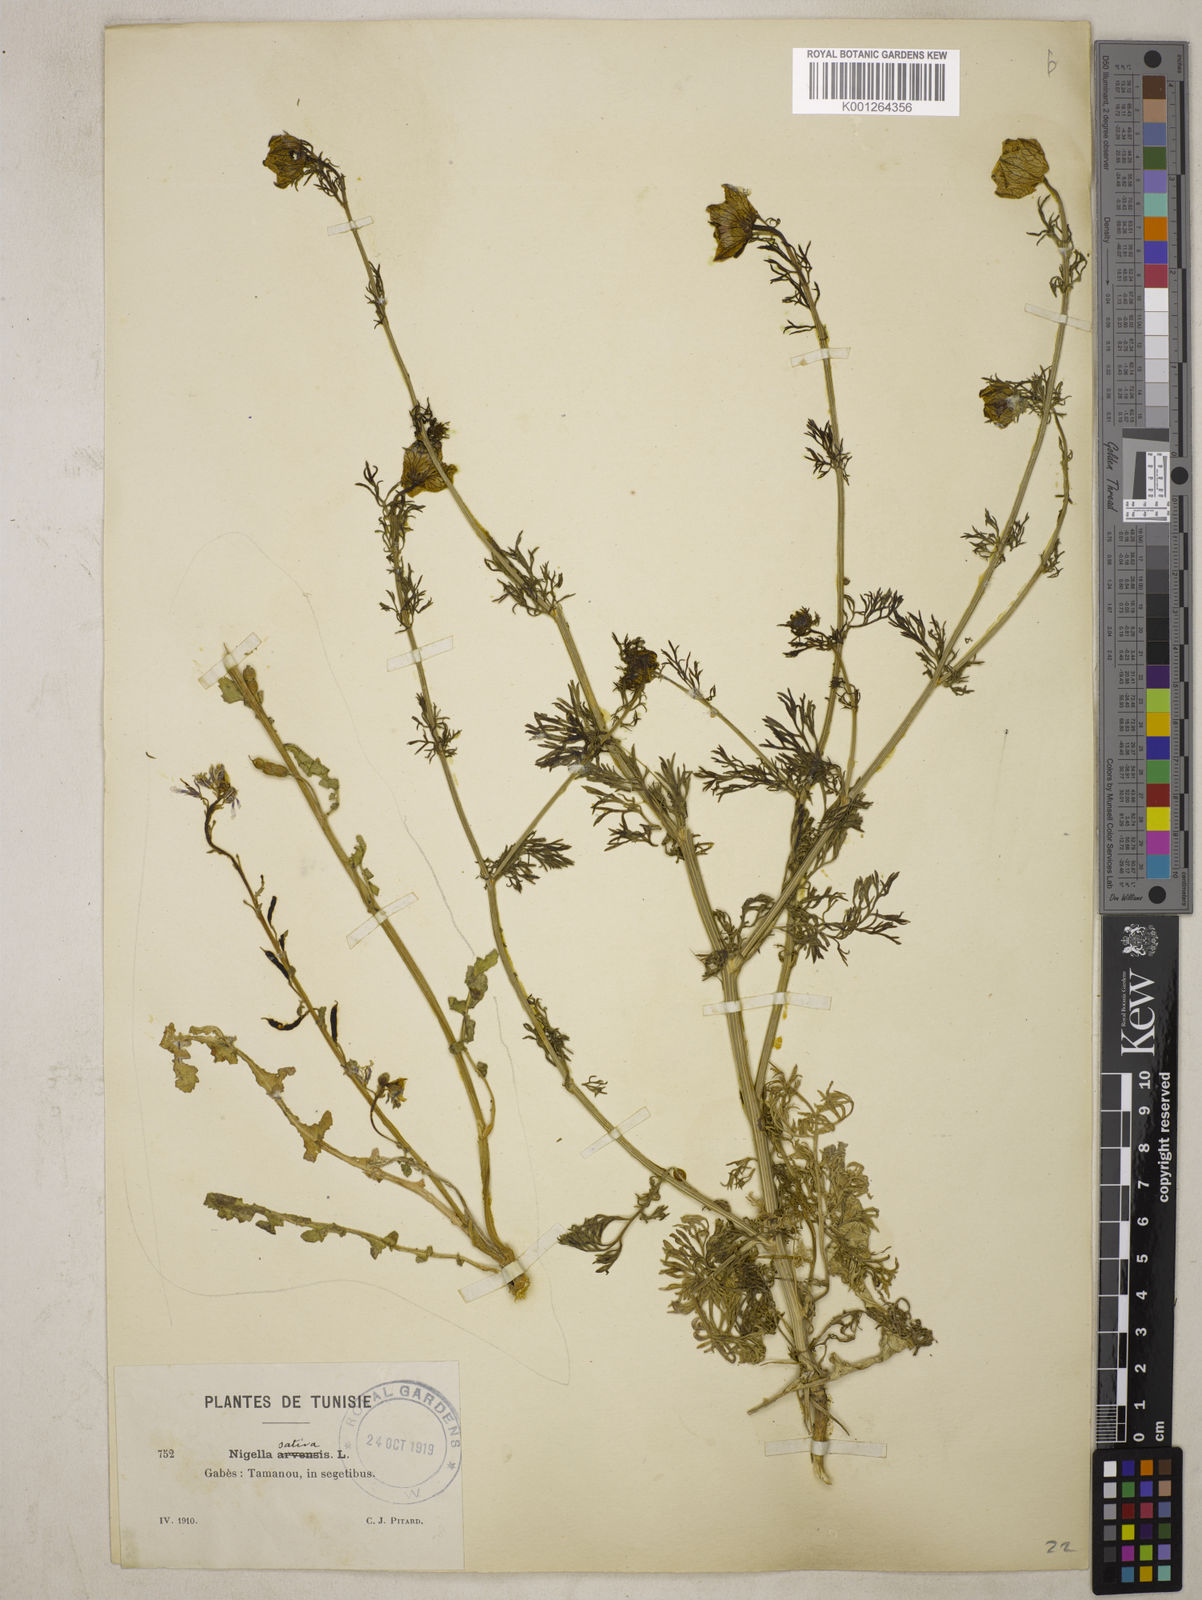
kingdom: Plantae
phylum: Tracheophyta
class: Magnoliopsida
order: Ranunculales
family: Ranunculaceae
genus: Nigella
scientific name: Nigella hispanica
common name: Fennel-flower
